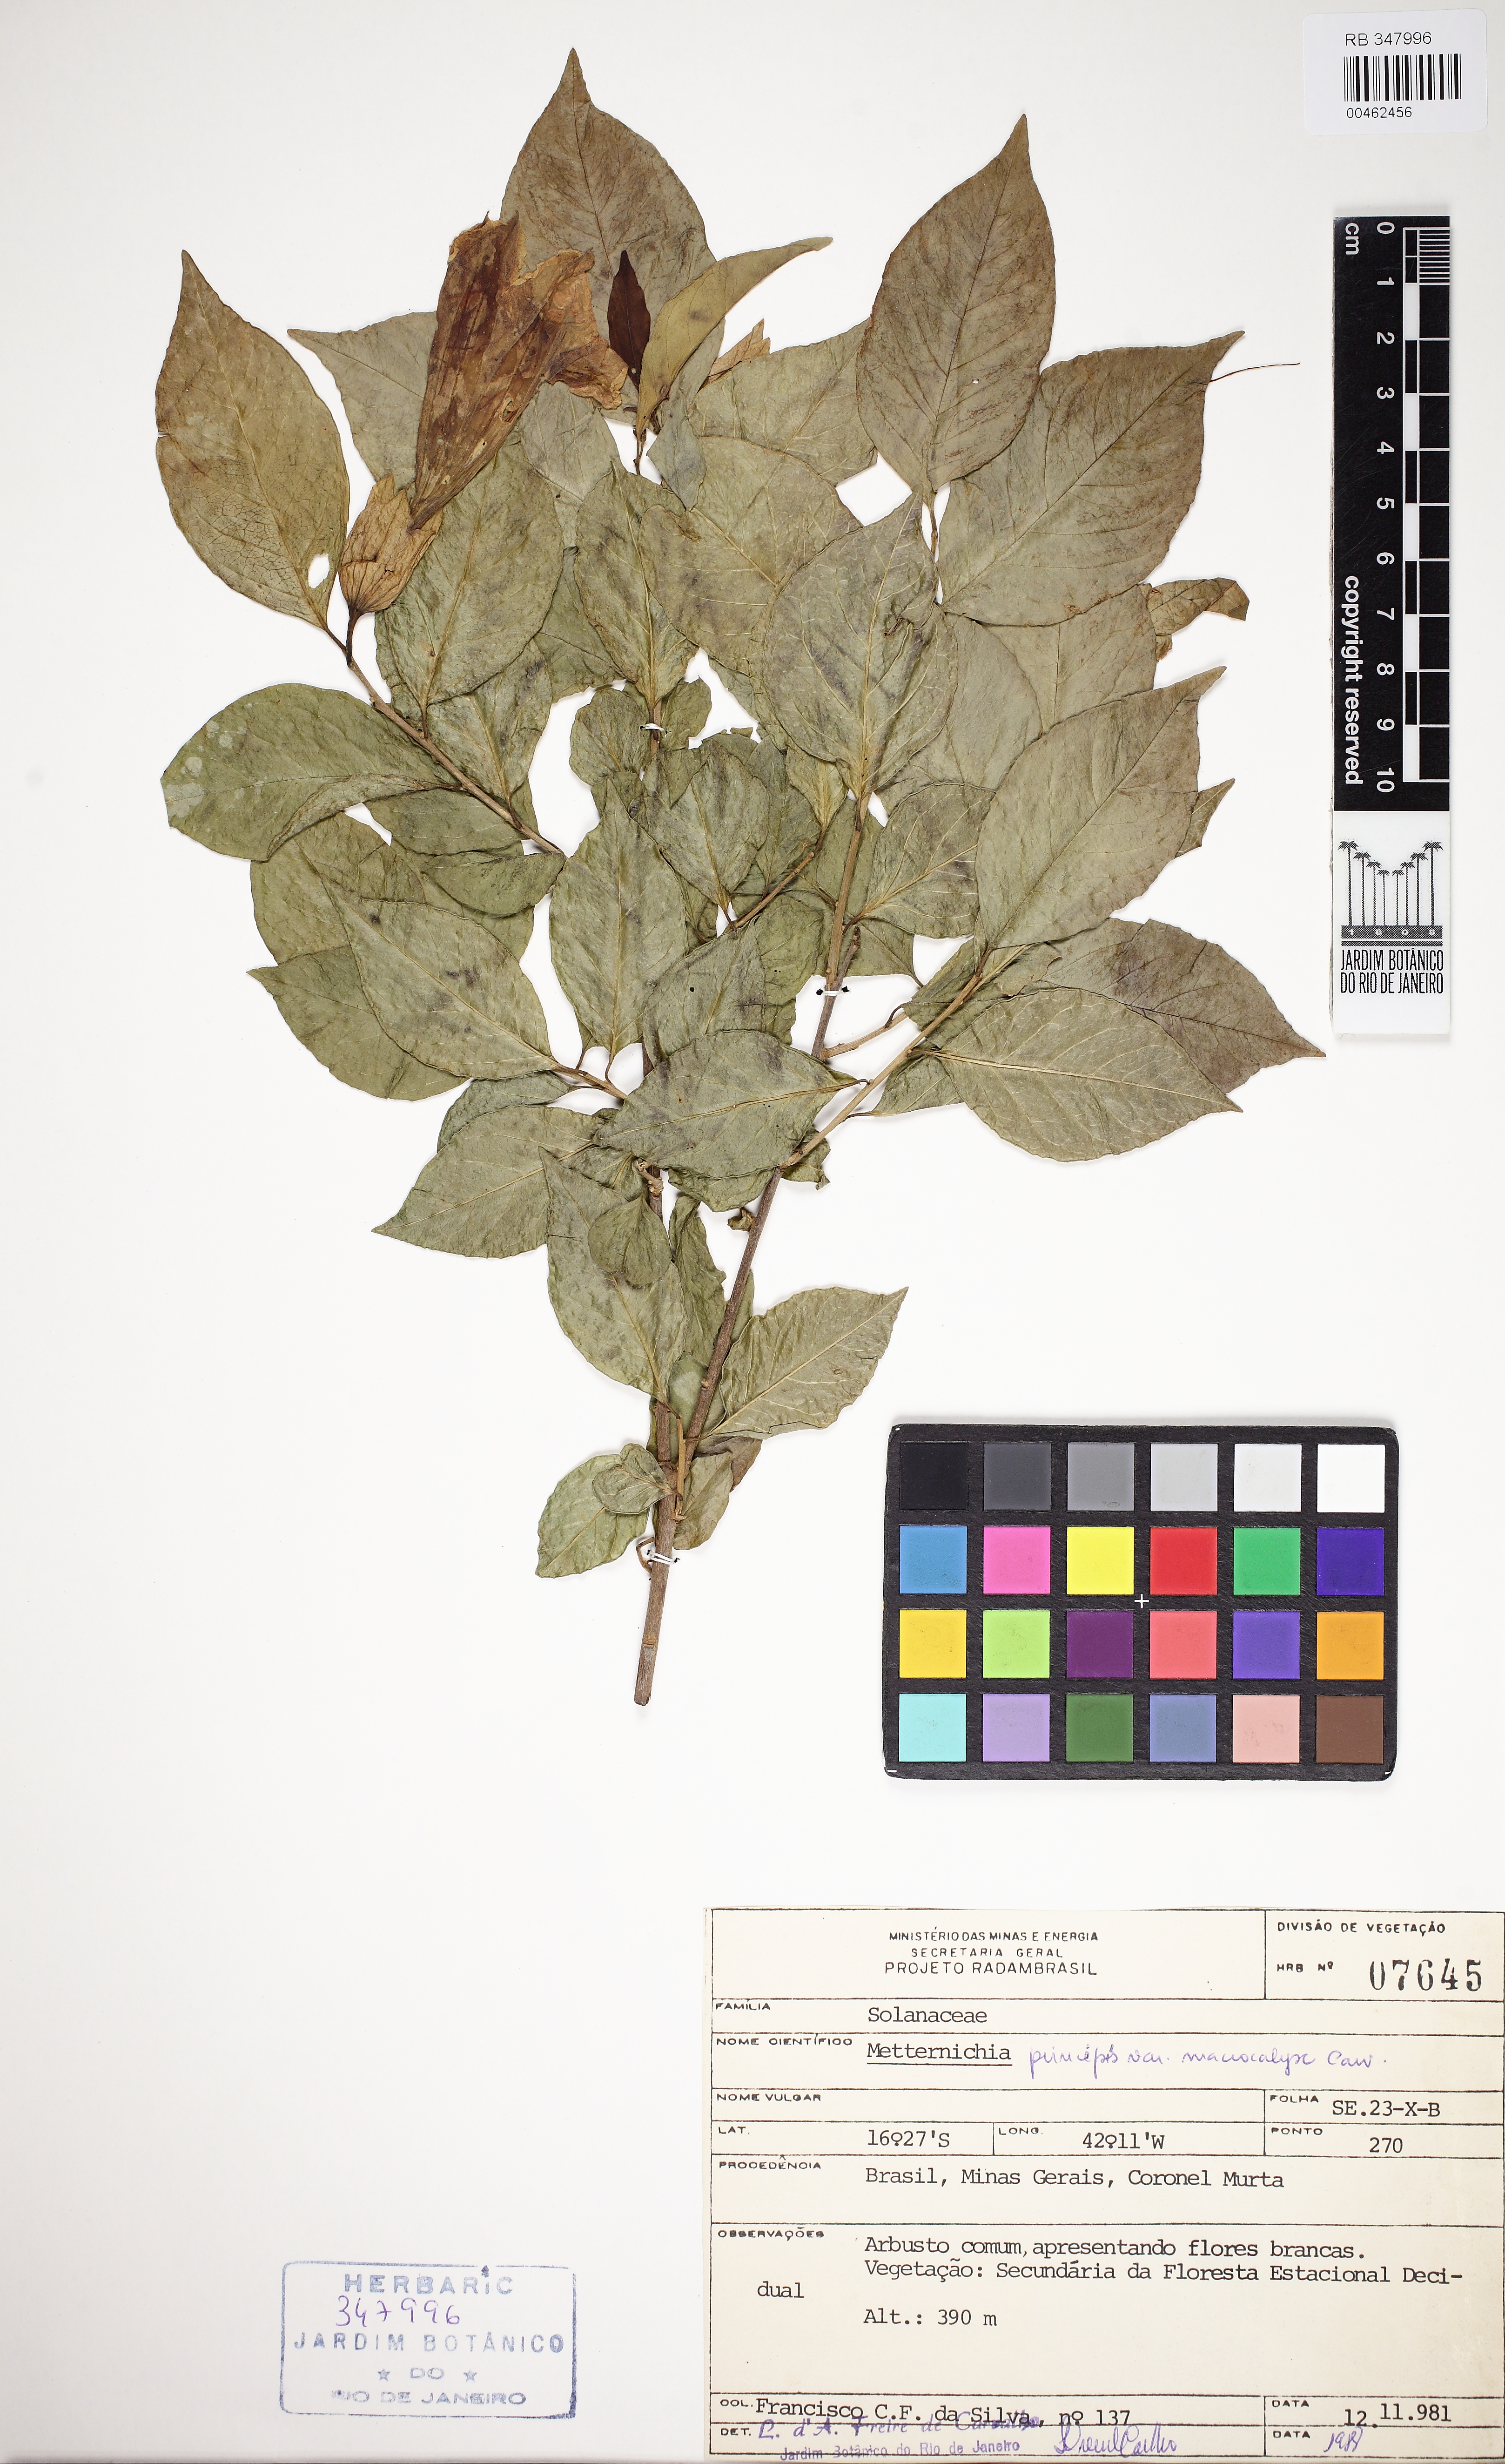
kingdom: Plantae
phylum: Tracheophyta
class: Magnoliopsida
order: Solanales
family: Solanaceae
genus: Metternichia
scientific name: Metternichia princeps
